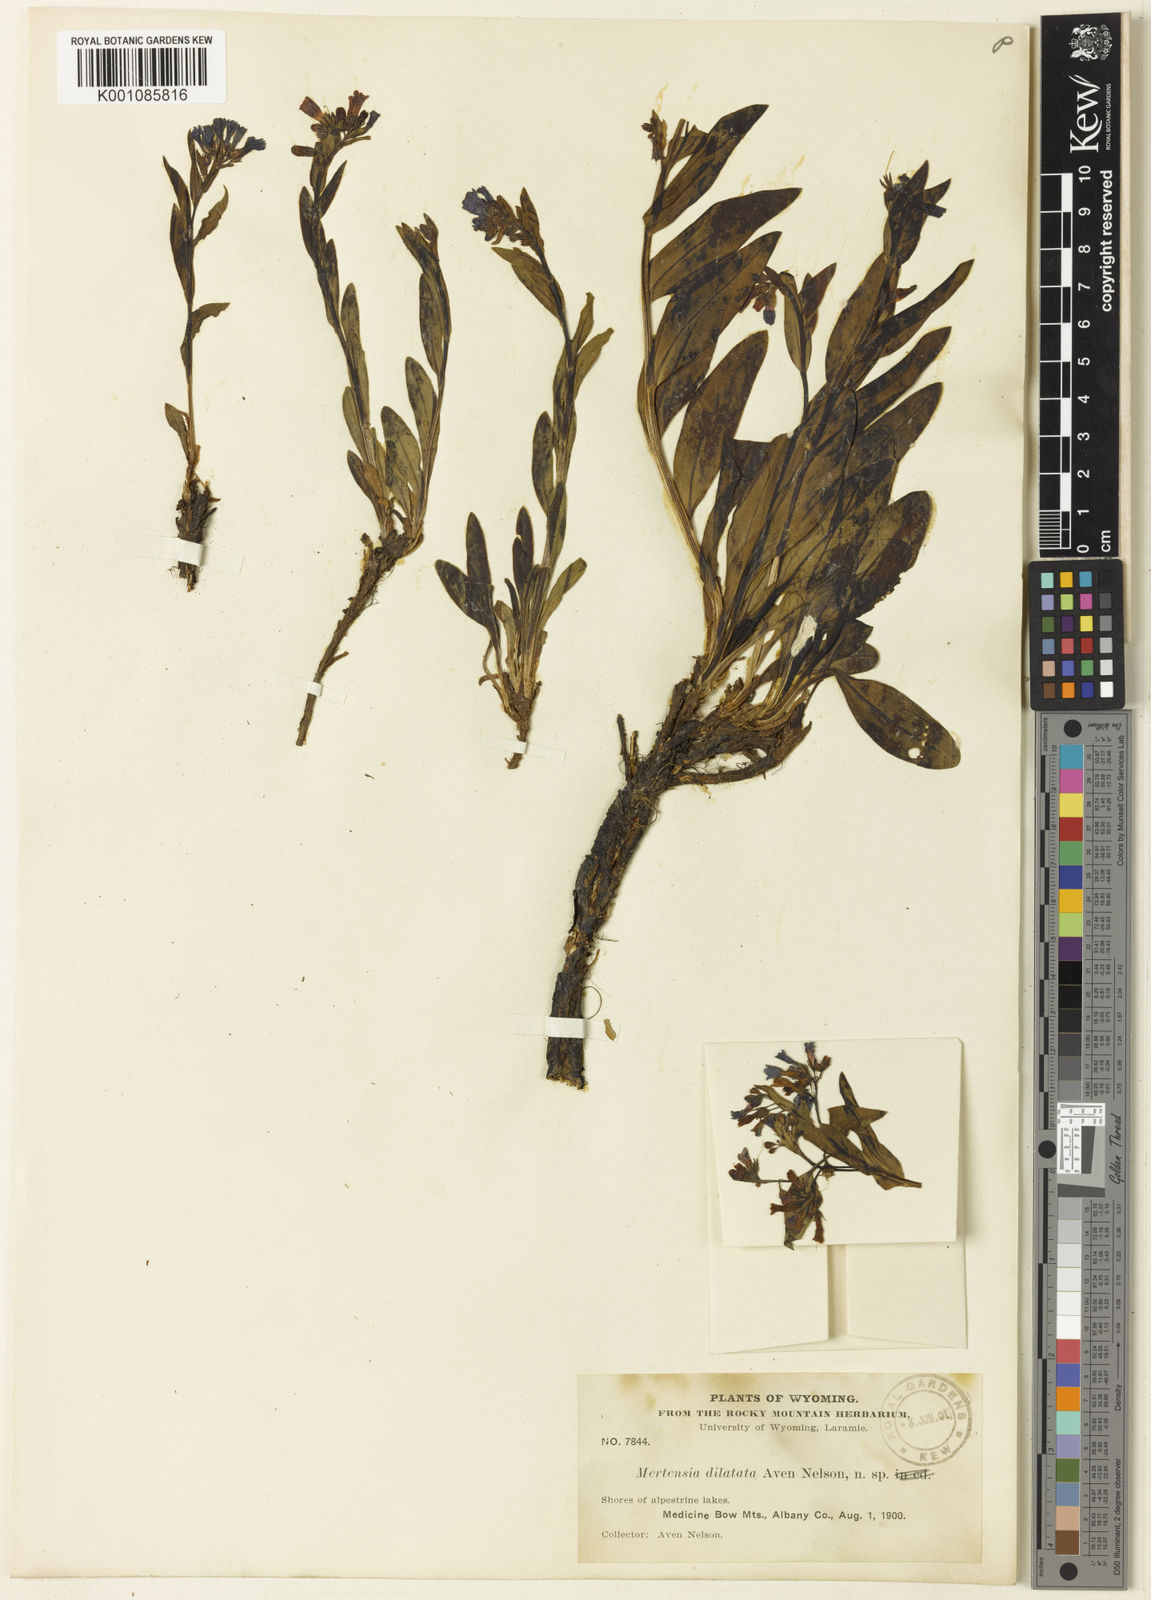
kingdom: Plantae
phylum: Tracheophyta
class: Magnoliopsida
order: Boraginales
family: Boraginaceae
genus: Mertensia
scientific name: Mertensia lanceolata
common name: Lance-leaved bluebells
